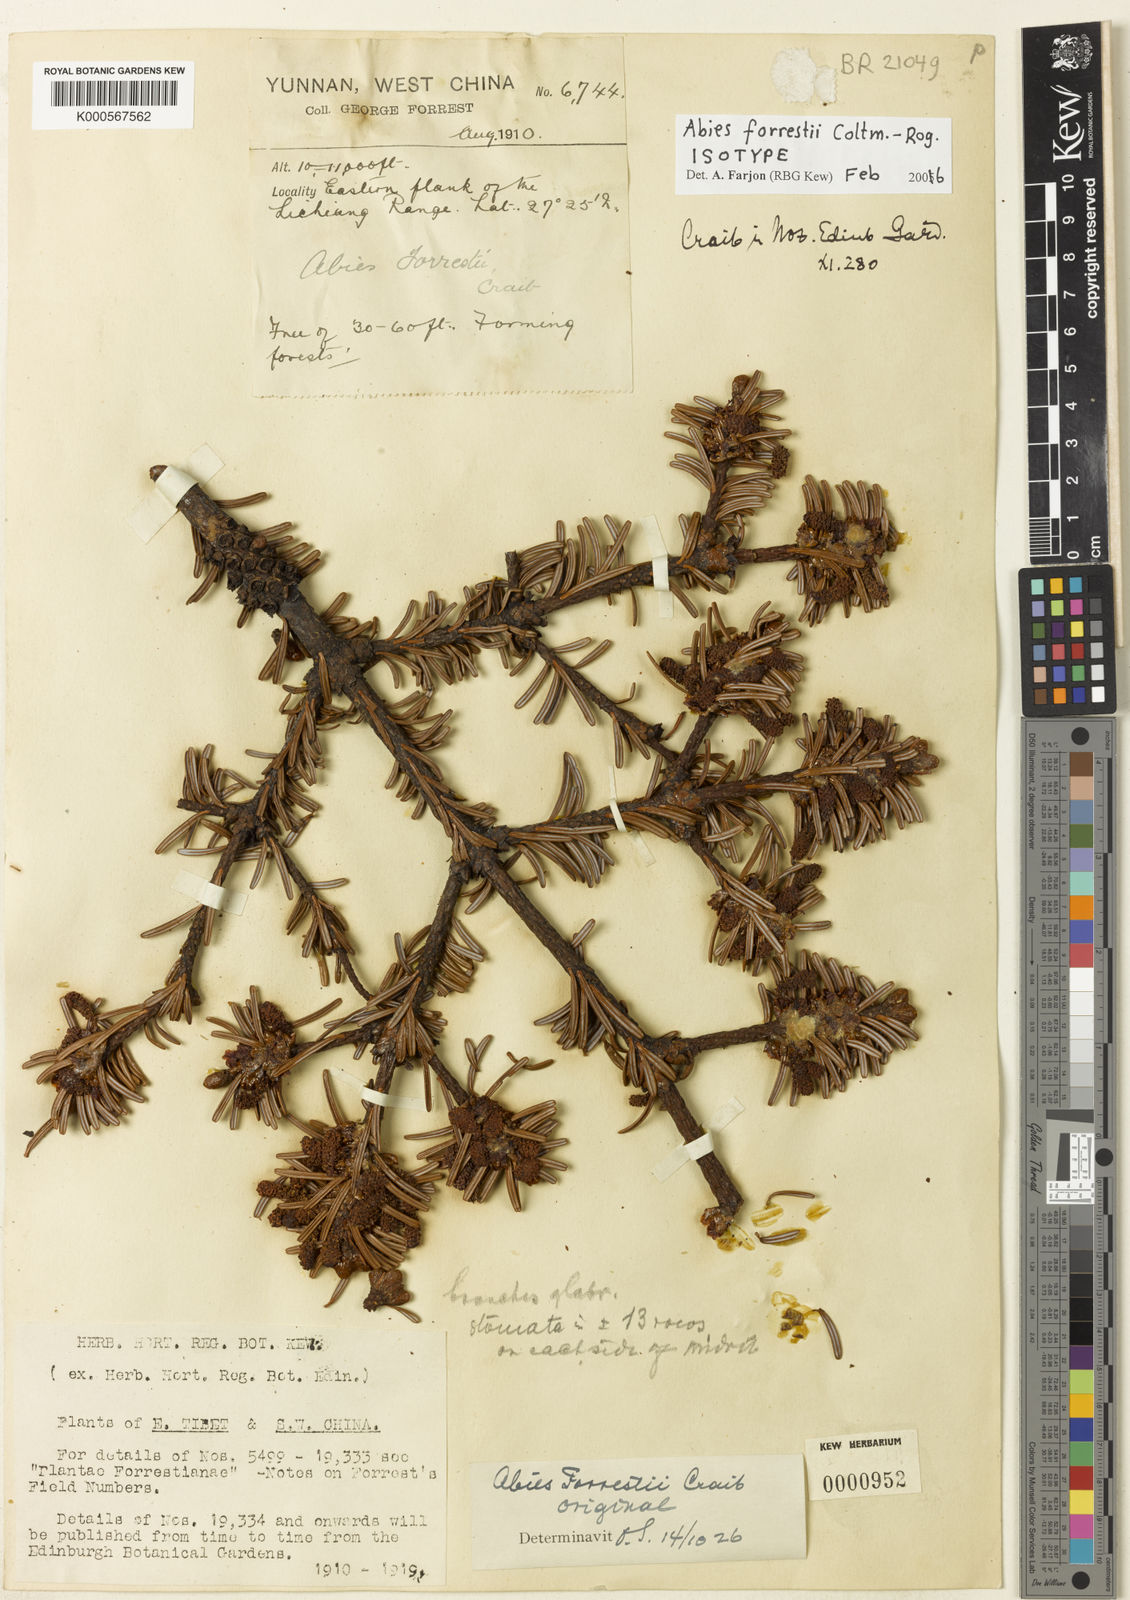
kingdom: Plantae
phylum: Tracheophyta
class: Pinopsida
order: Pinales
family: Pinaceae
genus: Abies
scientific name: Abies forrestii
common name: Forrest's fir
